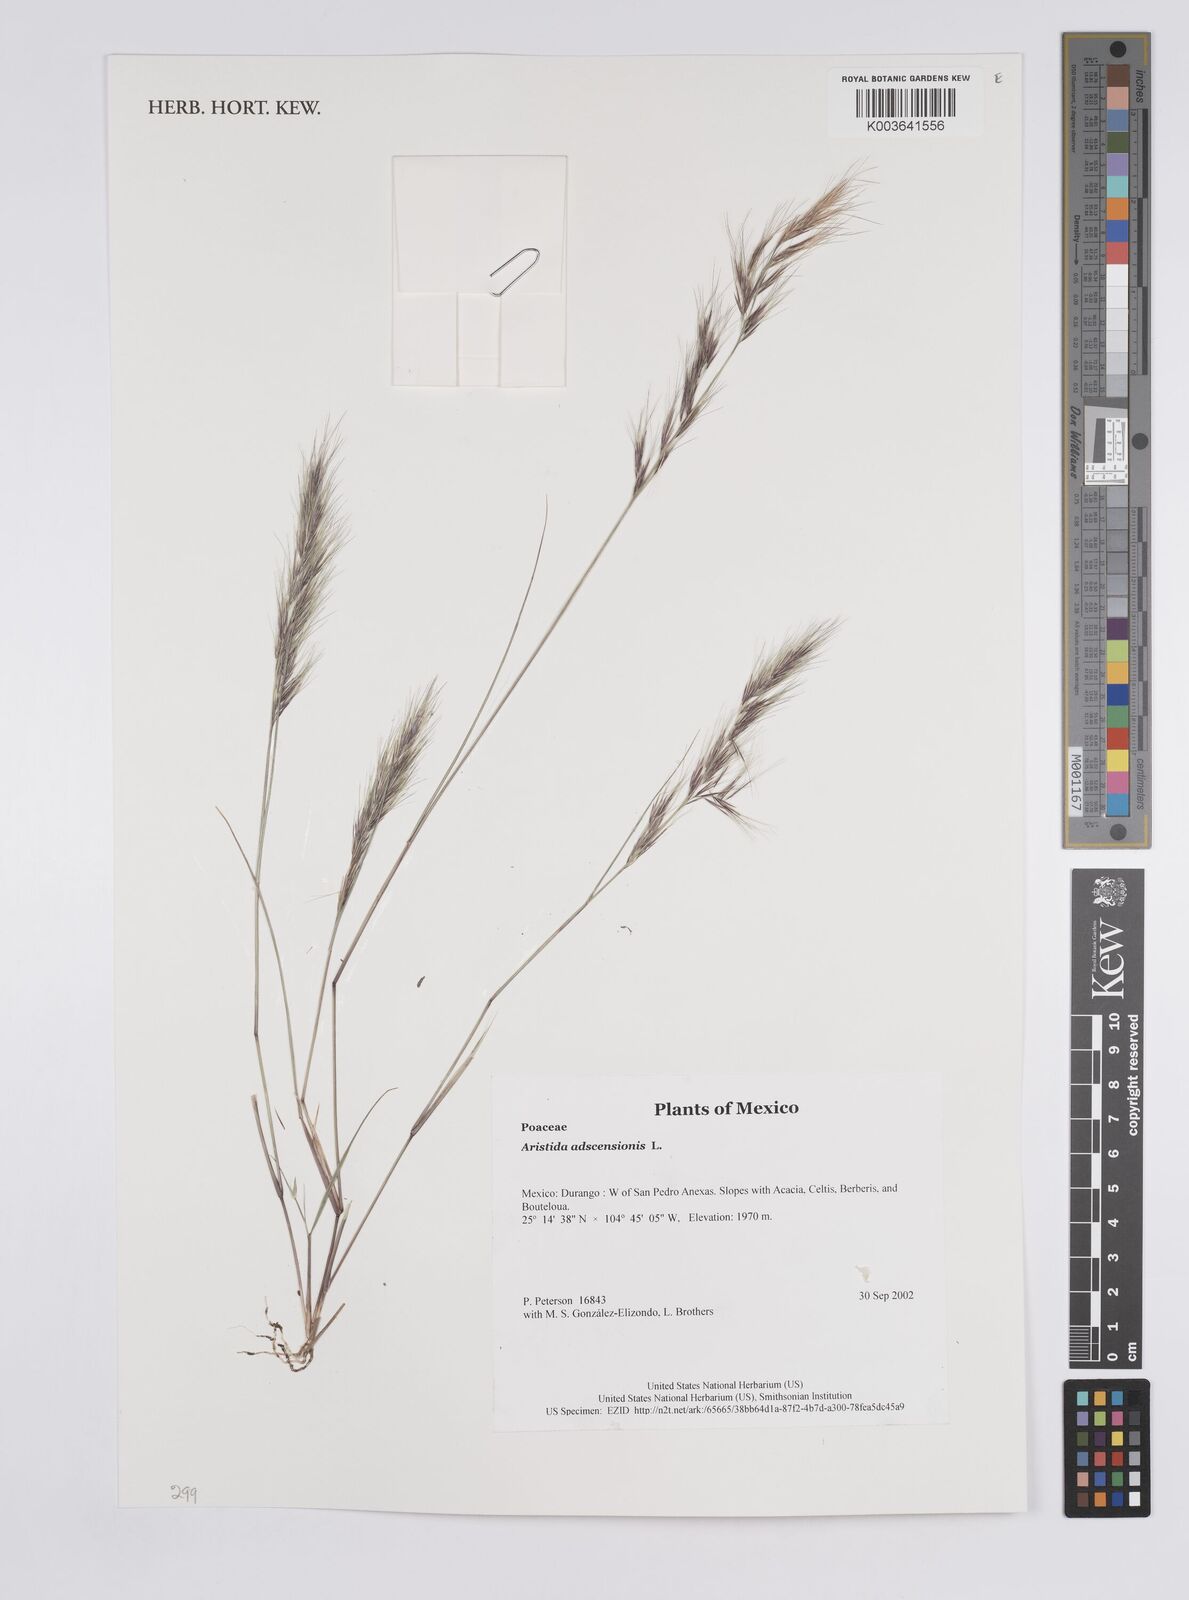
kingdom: Plantae
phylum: Tracheophyta
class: Liliopsida
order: Poales
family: Poaceae
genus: Aristida
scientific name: Aristida
